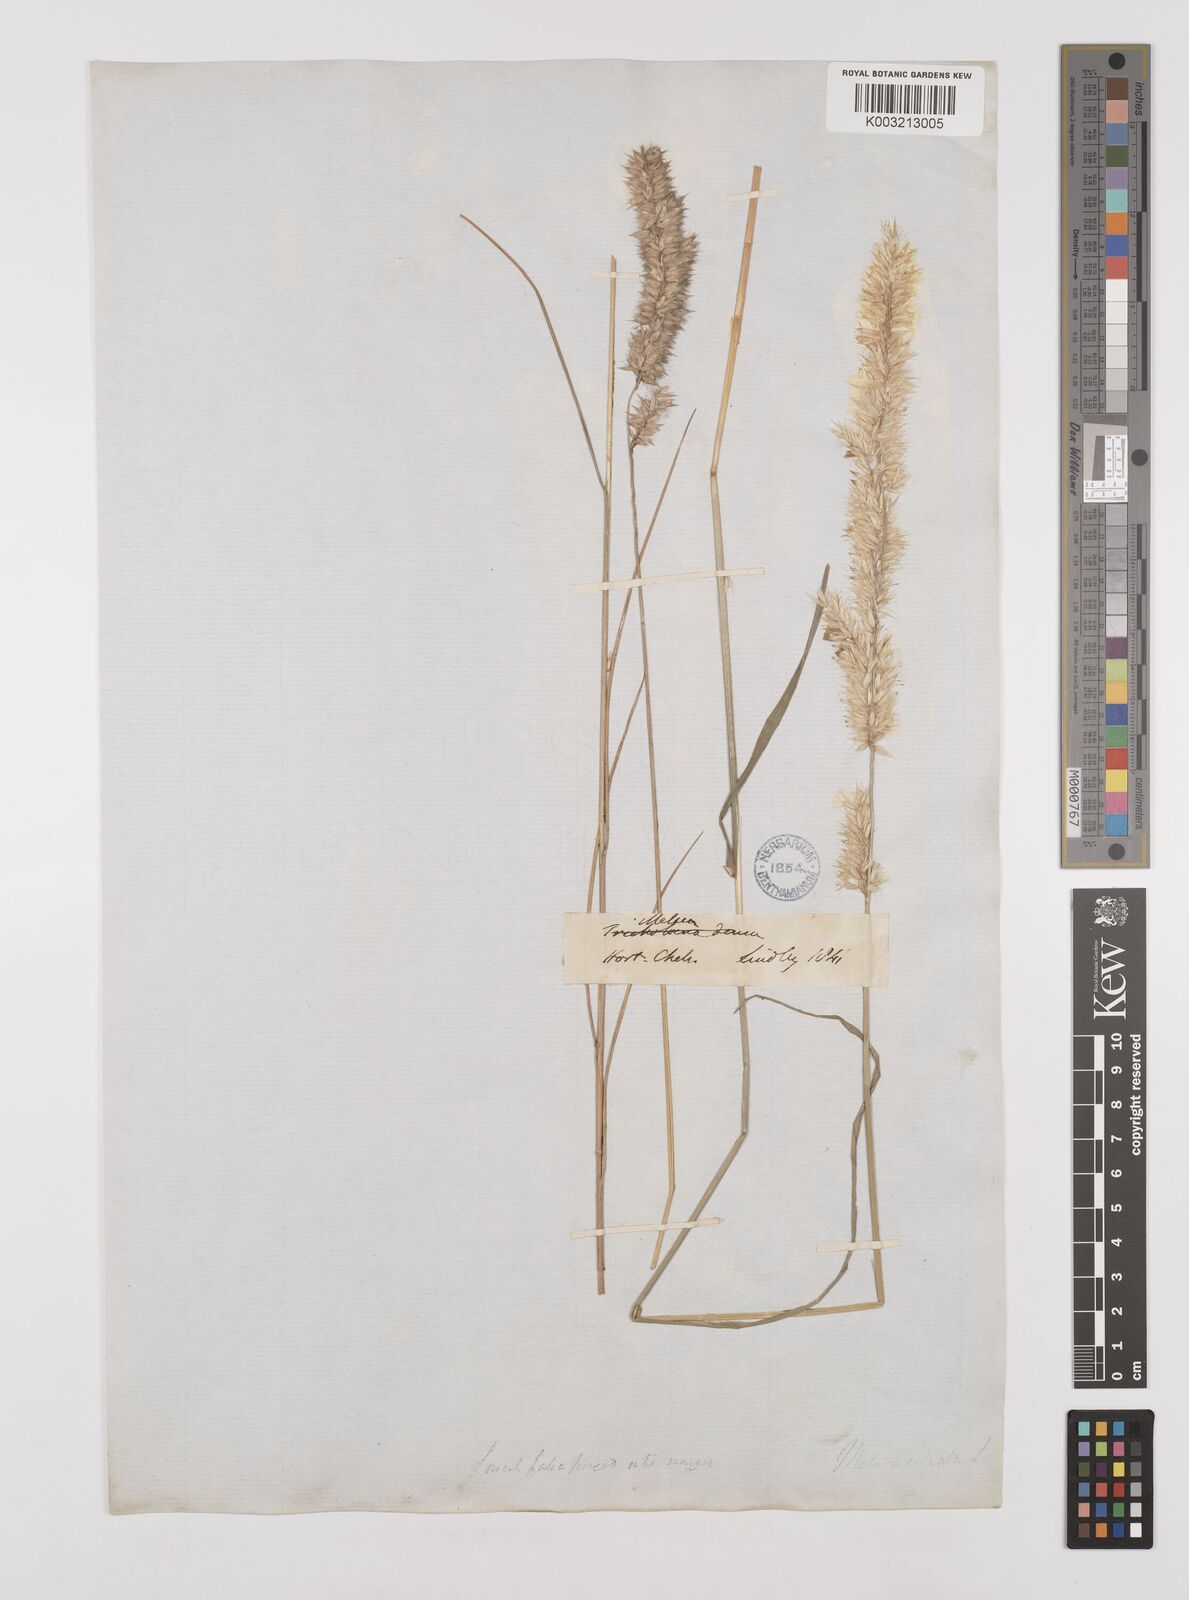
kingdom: Plantae
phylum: Tracheophyta
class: Liliopsida
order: Poales
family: Poaceae
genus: Melica
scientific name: Melica ciliata
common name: Hairy melicgrass
